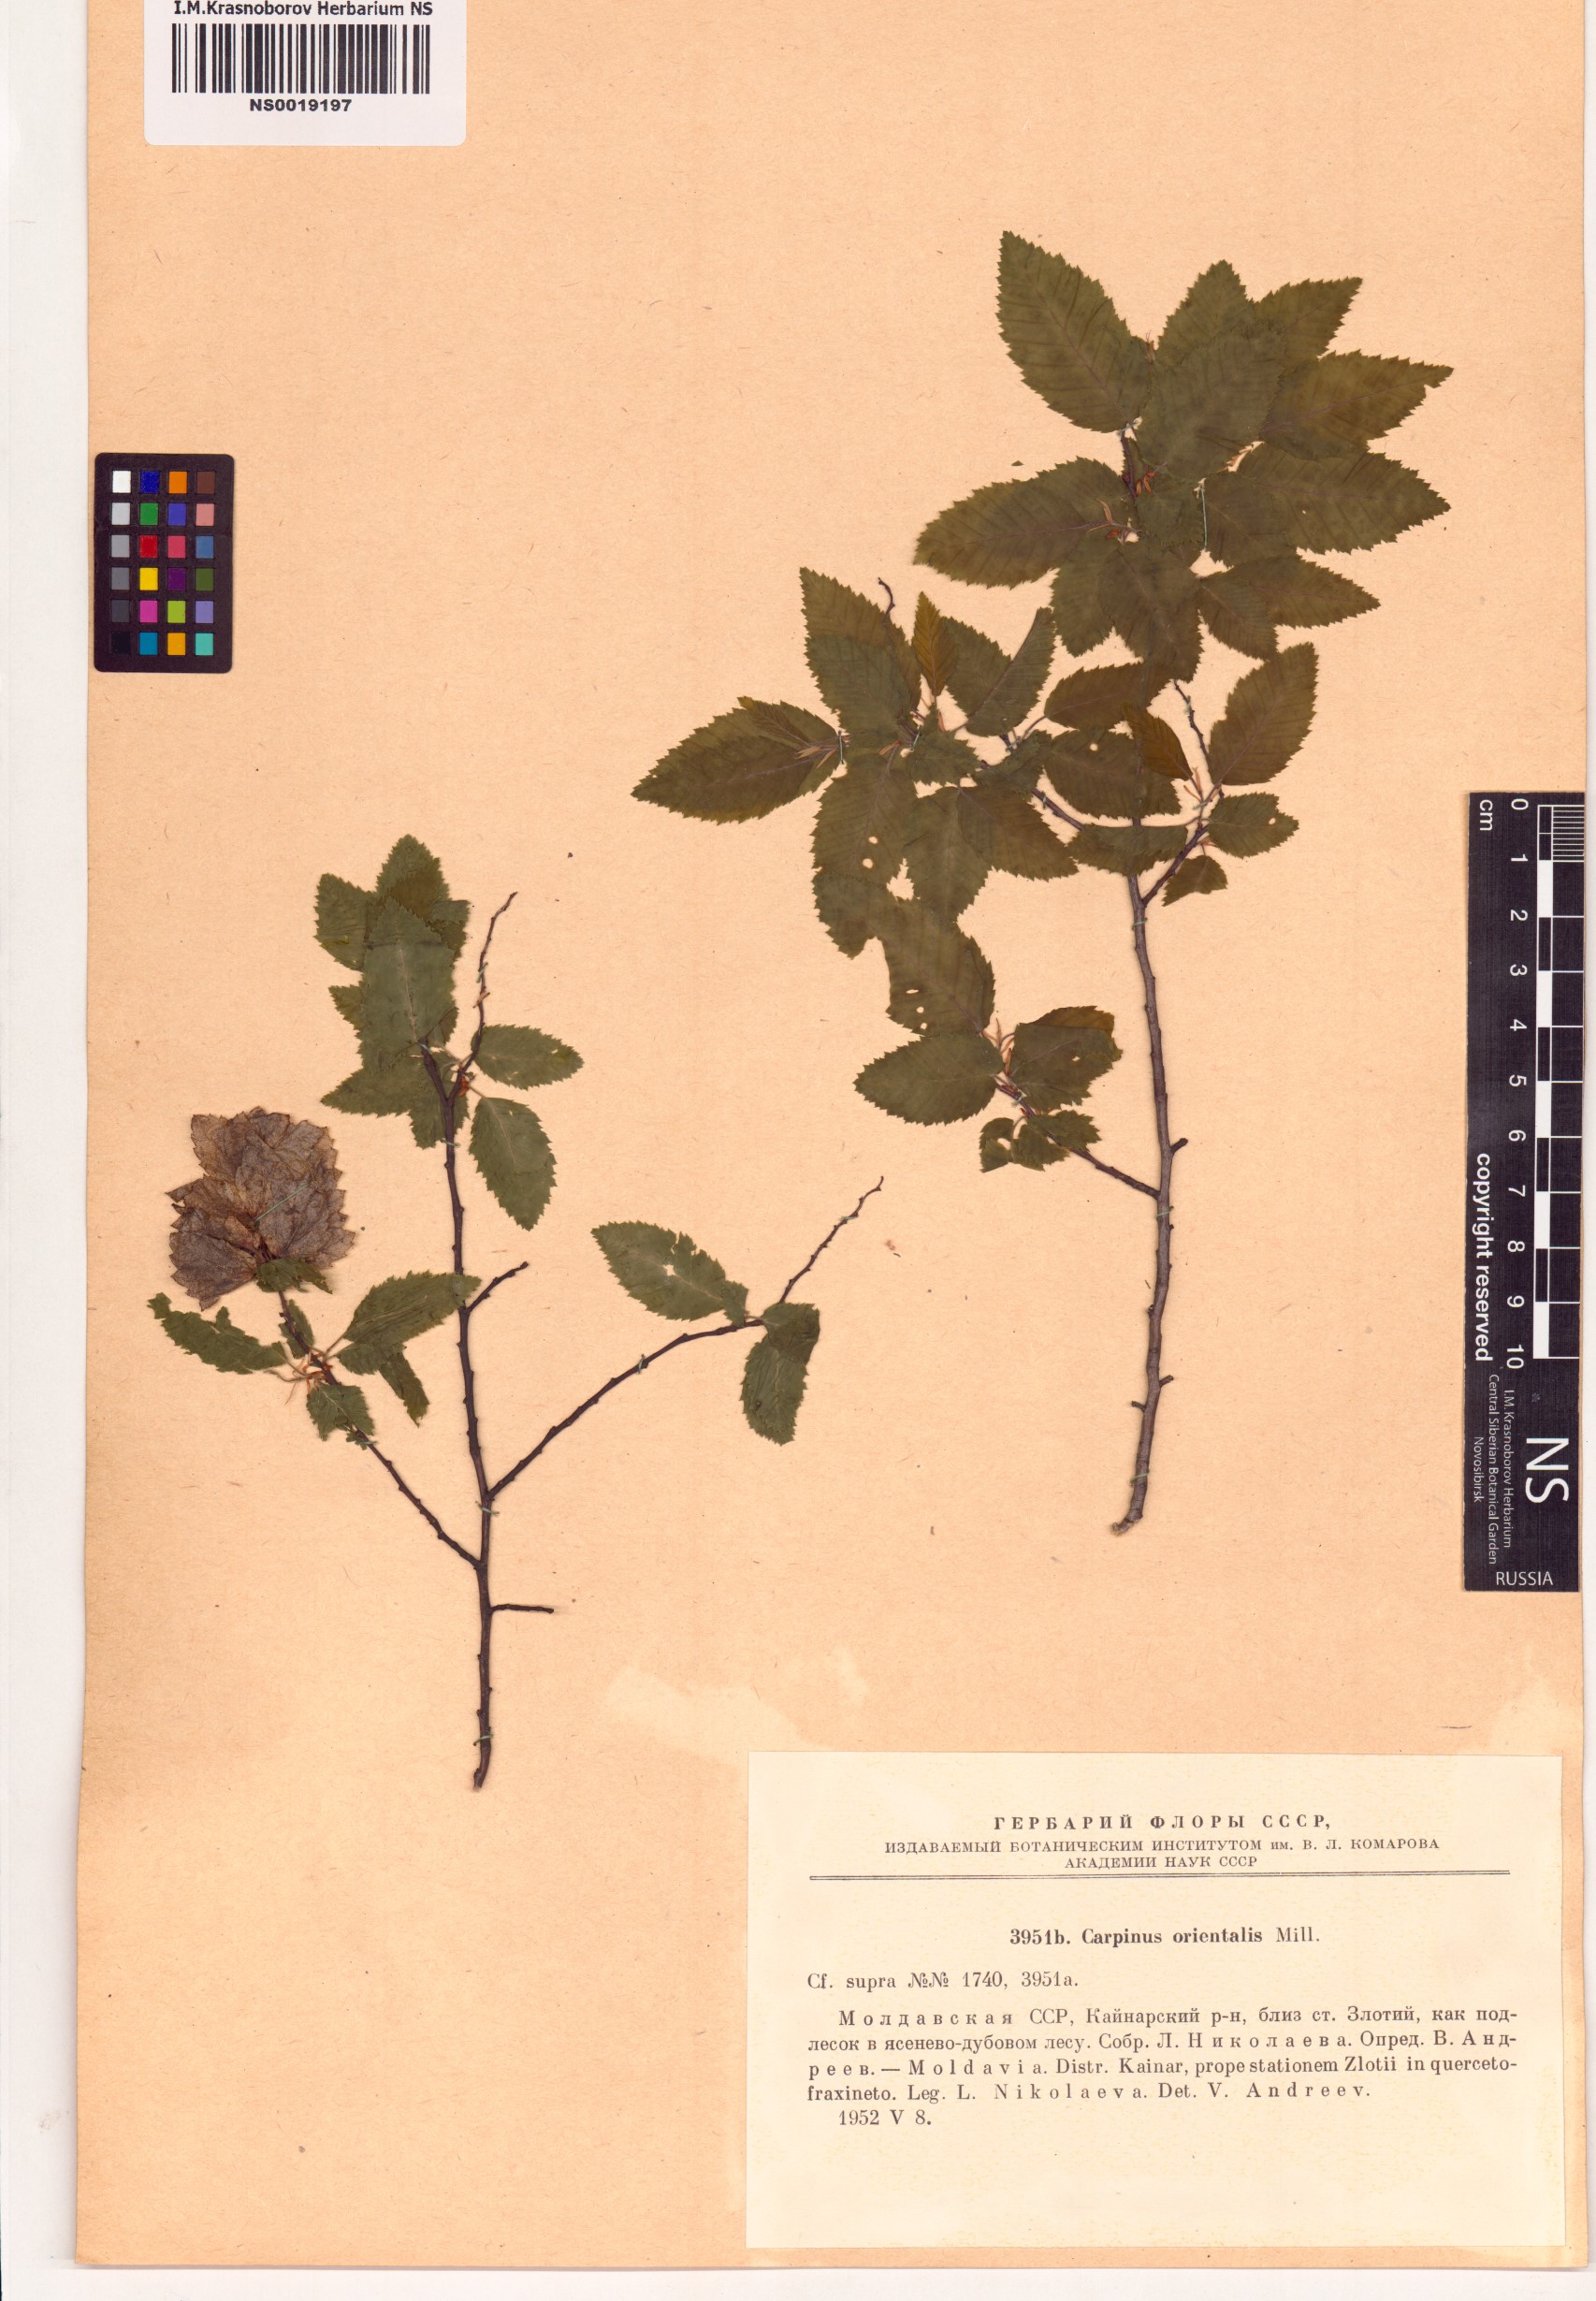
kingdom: Plantae
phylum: Tracheophyta
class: Magnoliopsida
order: Fagales
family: Betulaceae
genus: Carpinus
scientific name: Carpinus orientalis
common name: Eastern hornbeam
